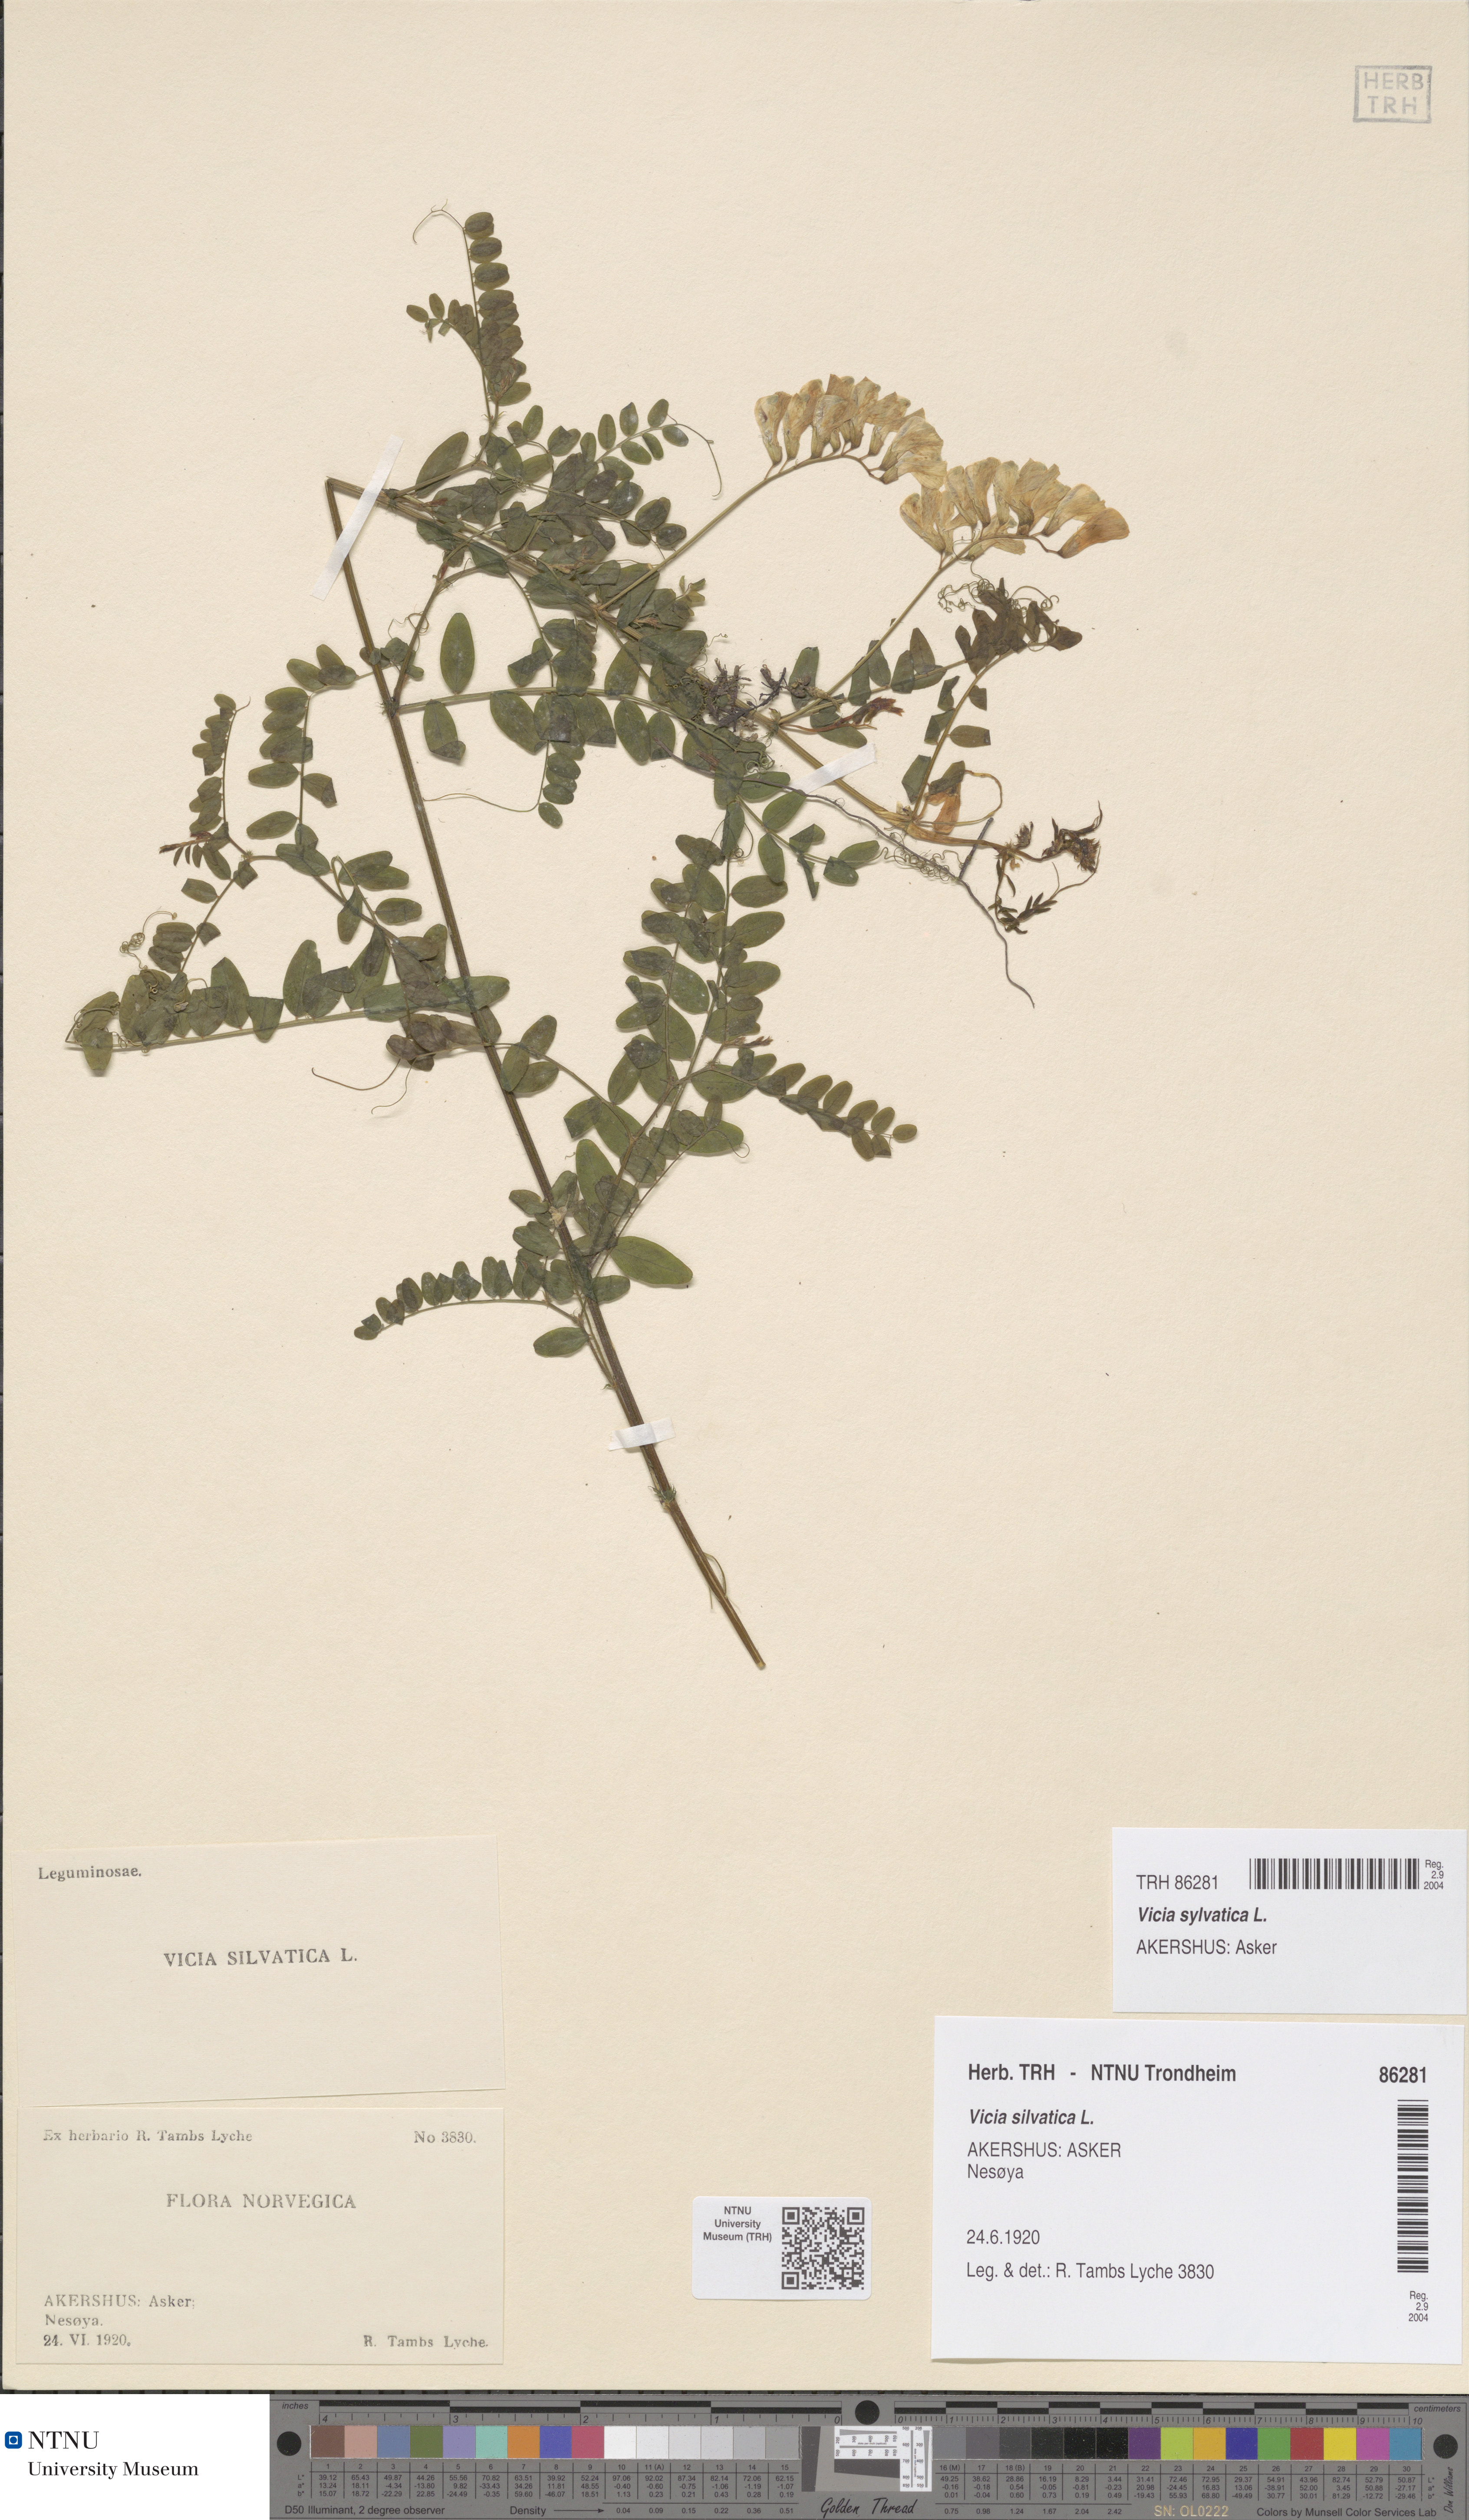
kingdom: Plantae
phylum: Tracheophyta
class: Magnoliopsida
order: Fabales
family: Fabaceae
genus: Vicia
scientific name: Vicia sylvatica
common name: Wood vetch
